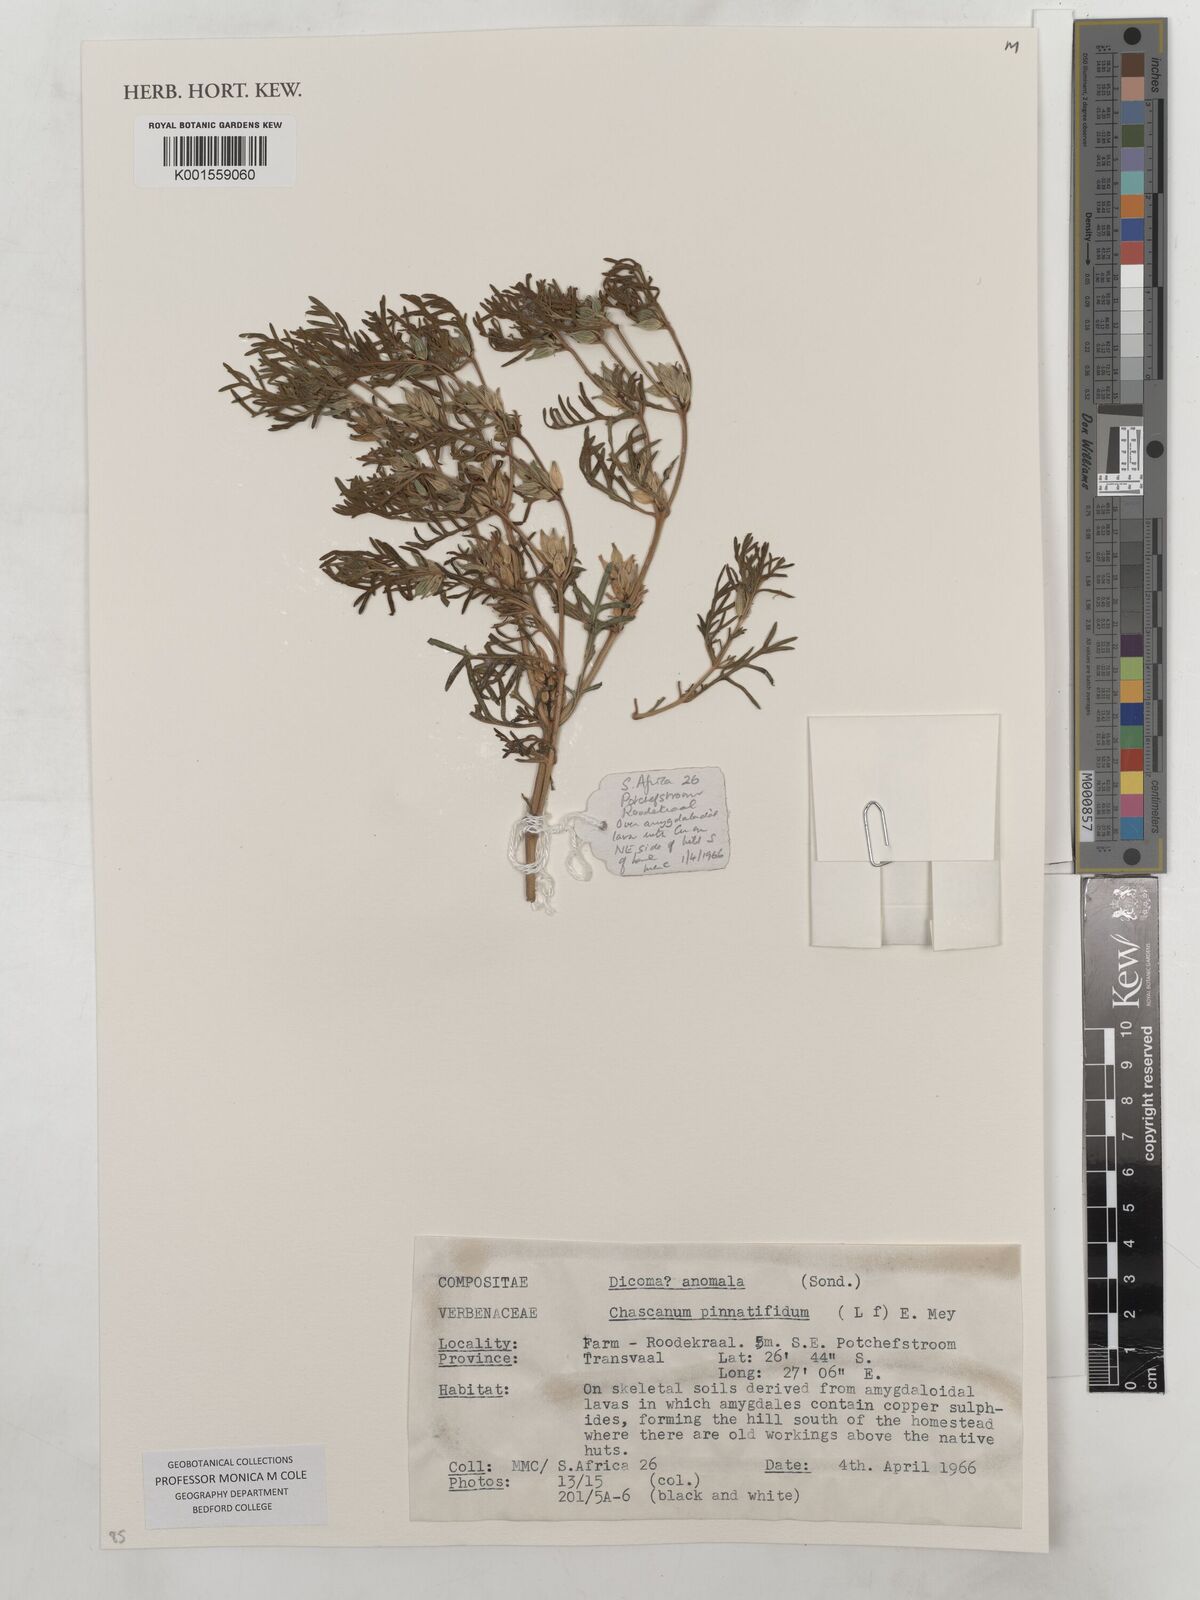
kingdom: Plantae
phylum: Tracheophyta
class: Magnoliopsida
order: Asterales
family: Asteraceae
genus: Dicoma
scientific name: Dicoma anomala
